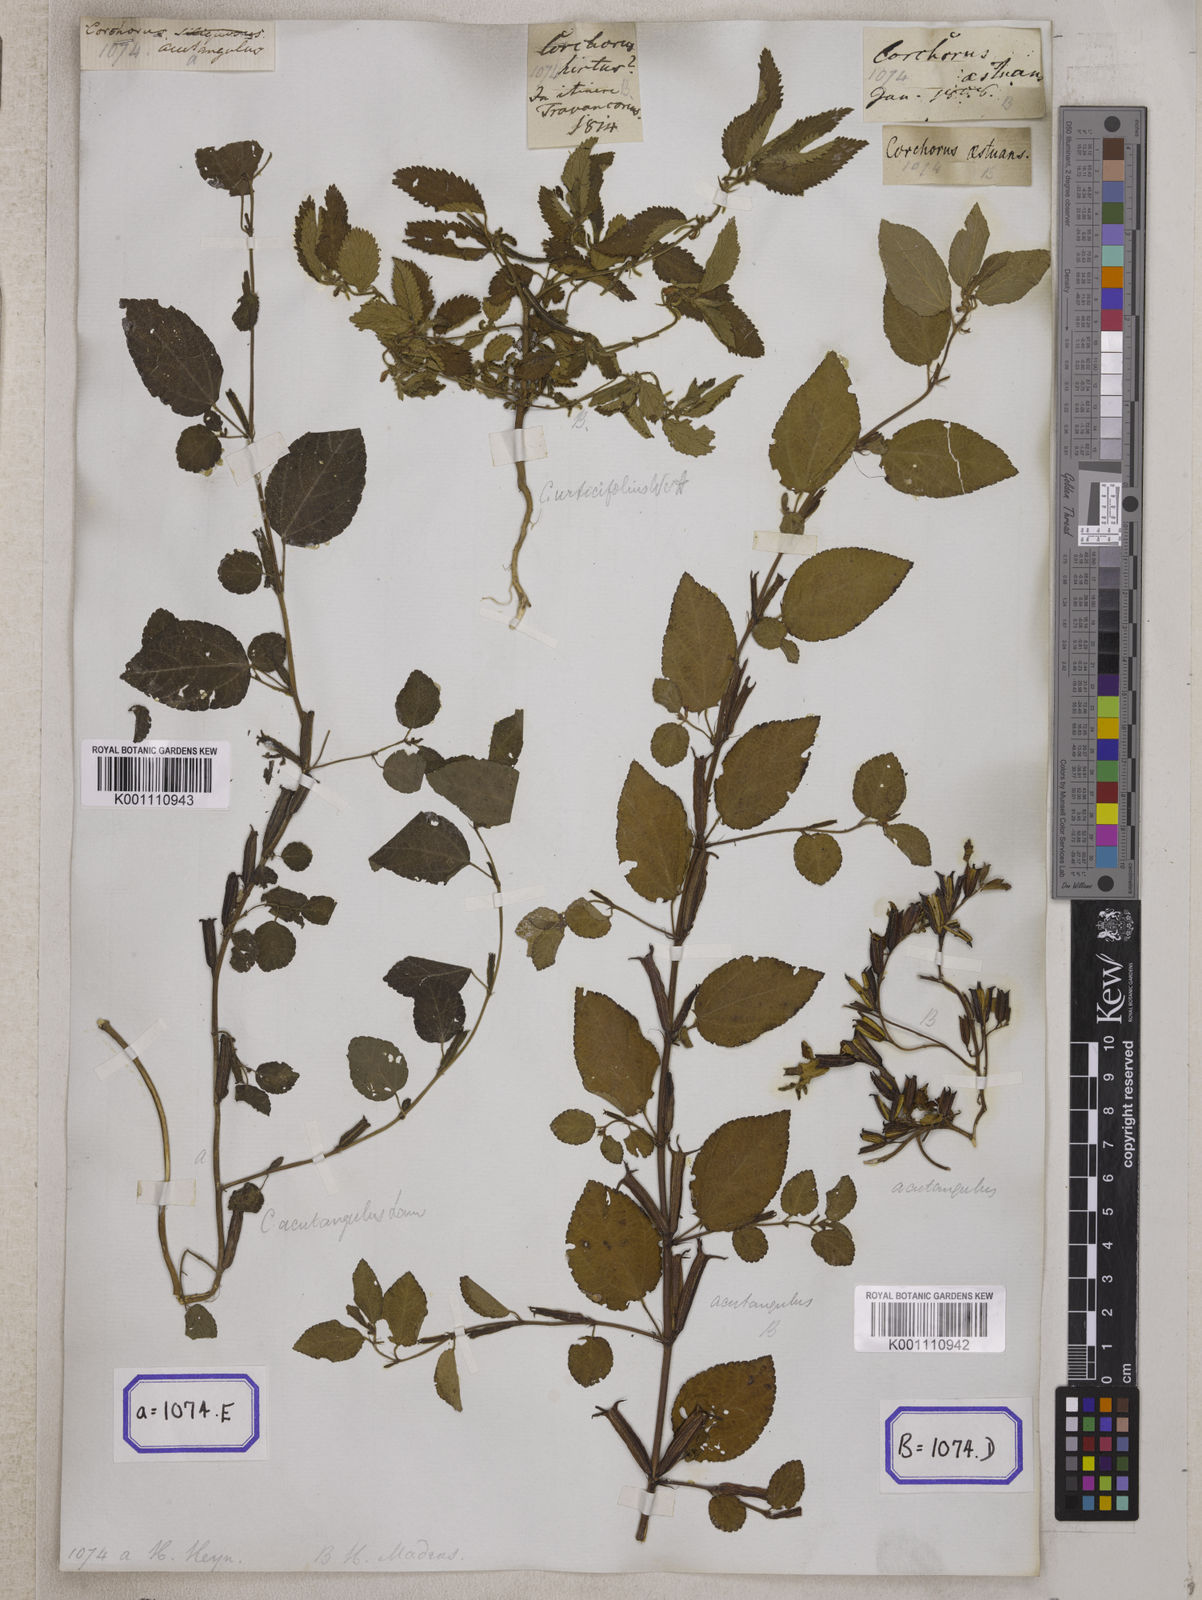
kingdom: Plantae
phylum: Tracheophyta
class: Magnoliopsida
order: Malvales
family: Malvaceae
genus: Corchorus
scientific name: Corchorus urticifolius
